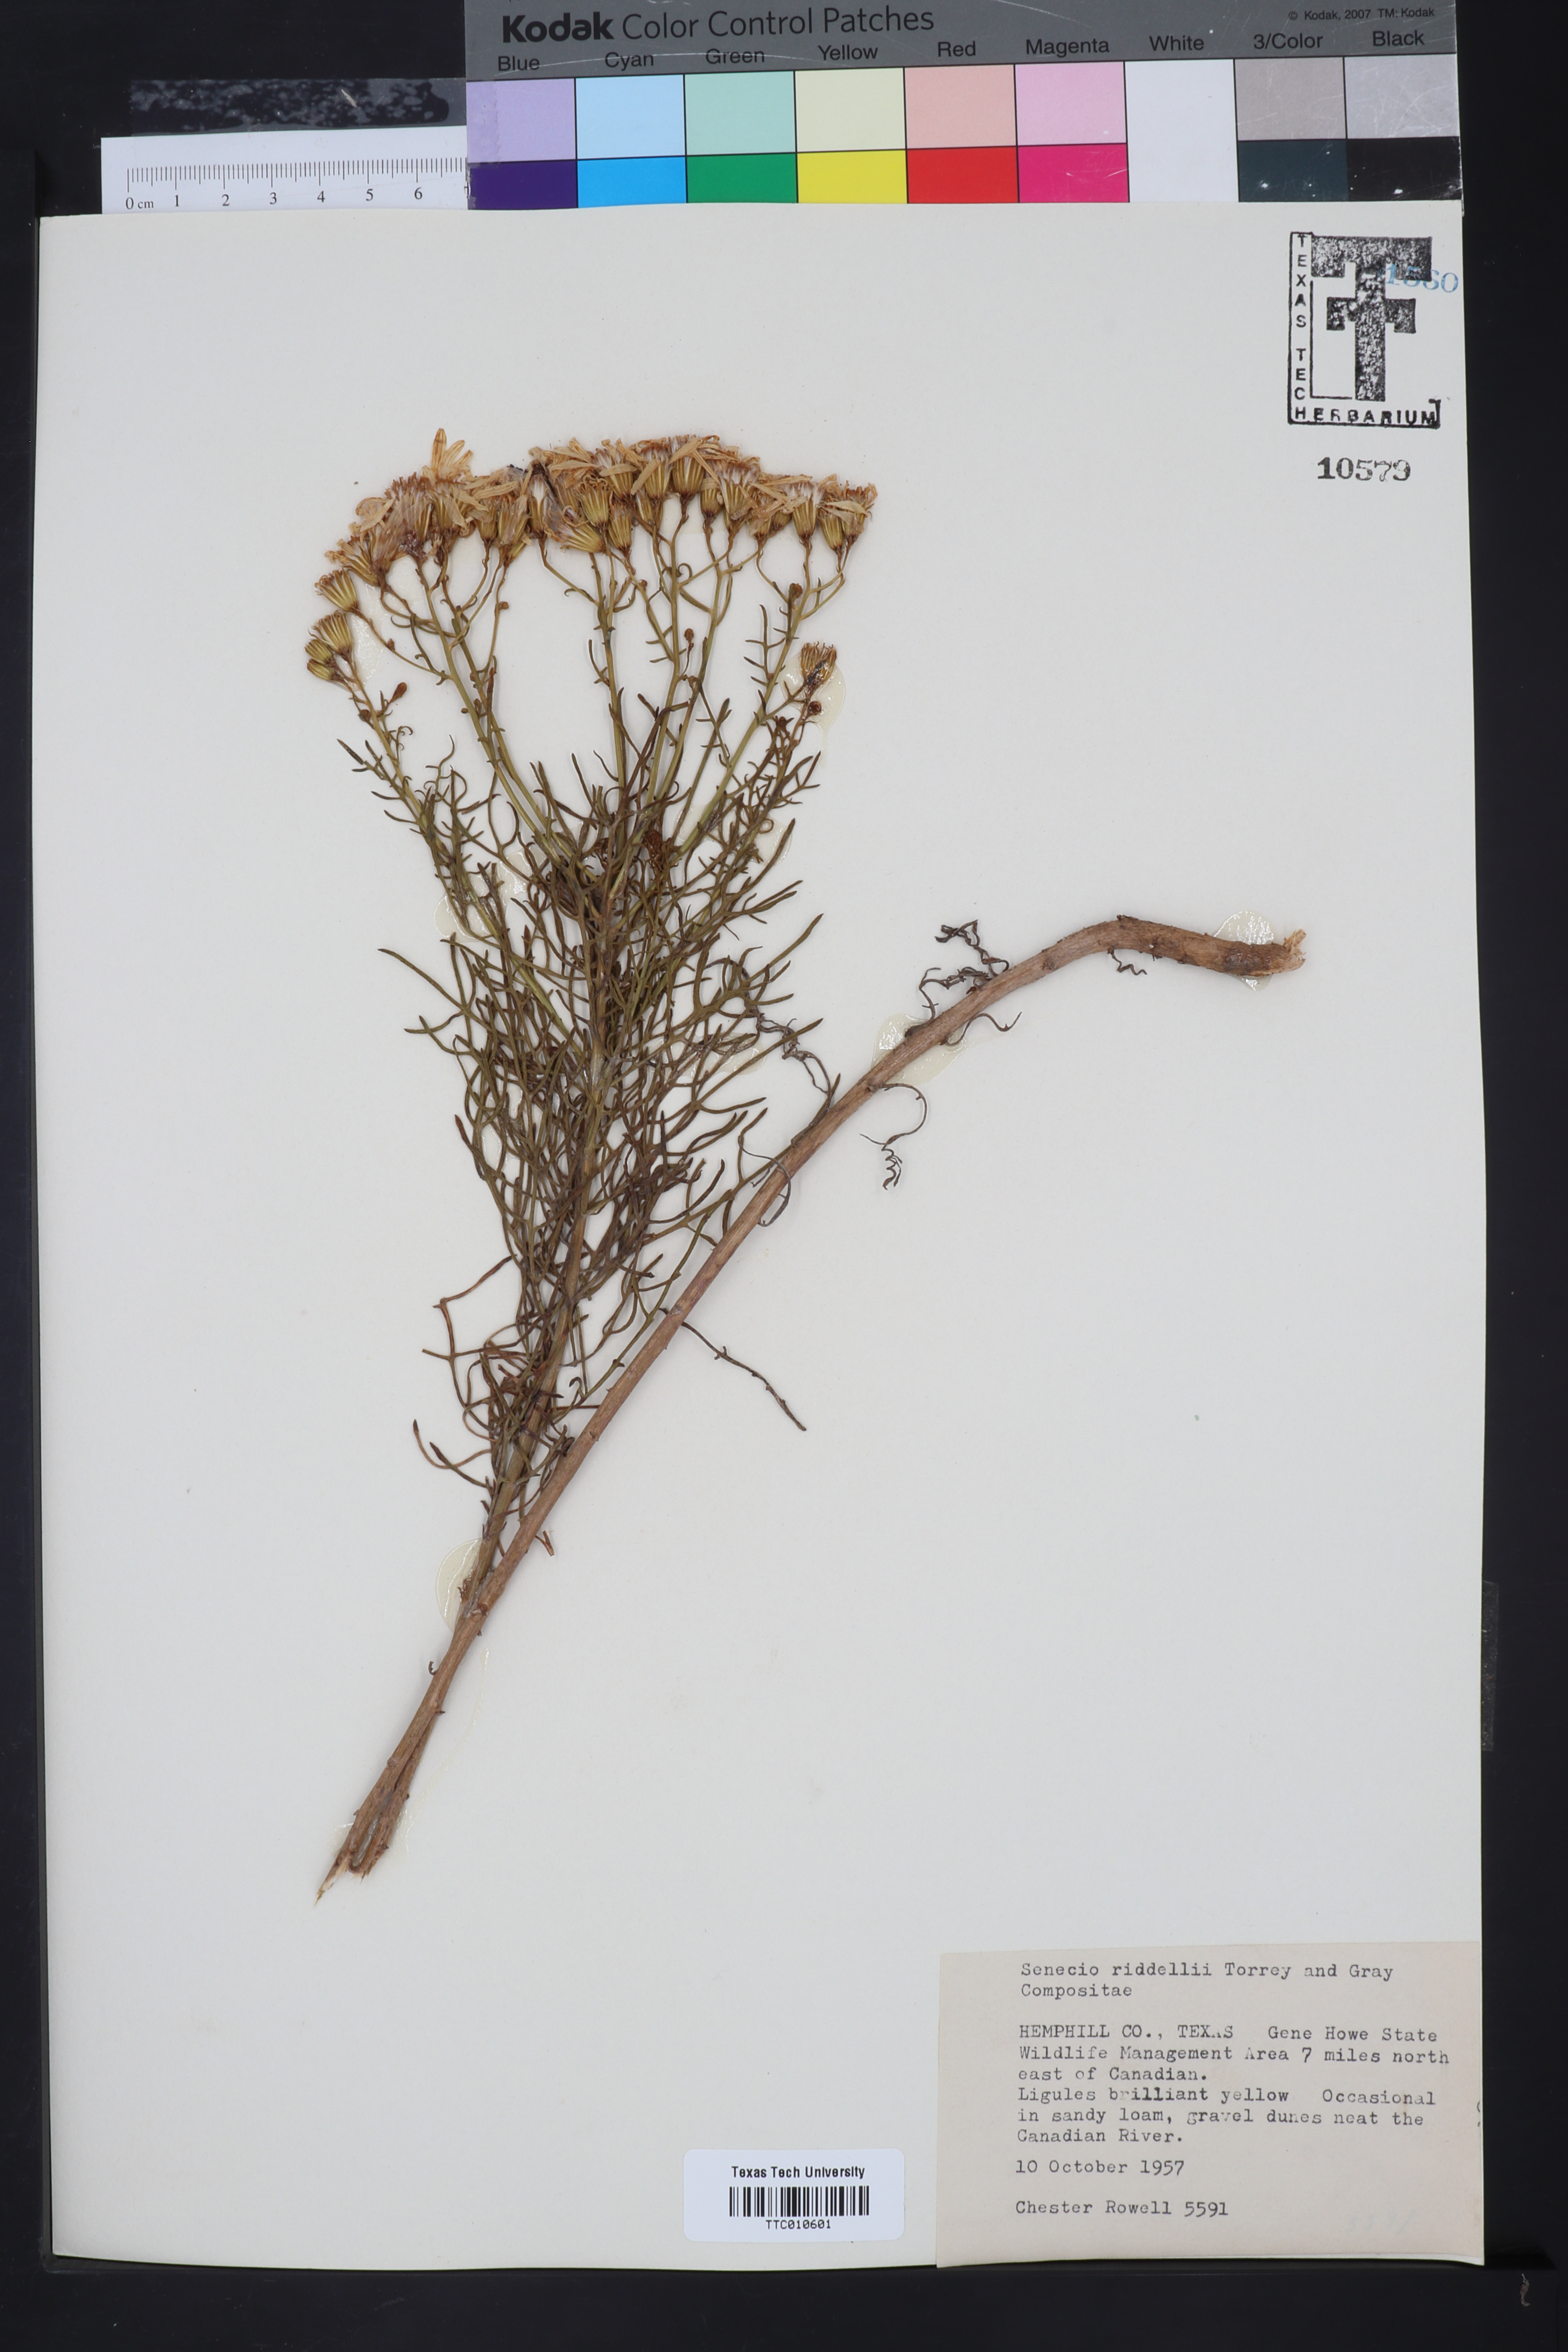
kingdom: Plantae
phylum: Tracheophyta
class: Magnoliopsida
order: Asterales
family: Asteraceae
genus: Senecio
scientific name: Senecio riddellii
